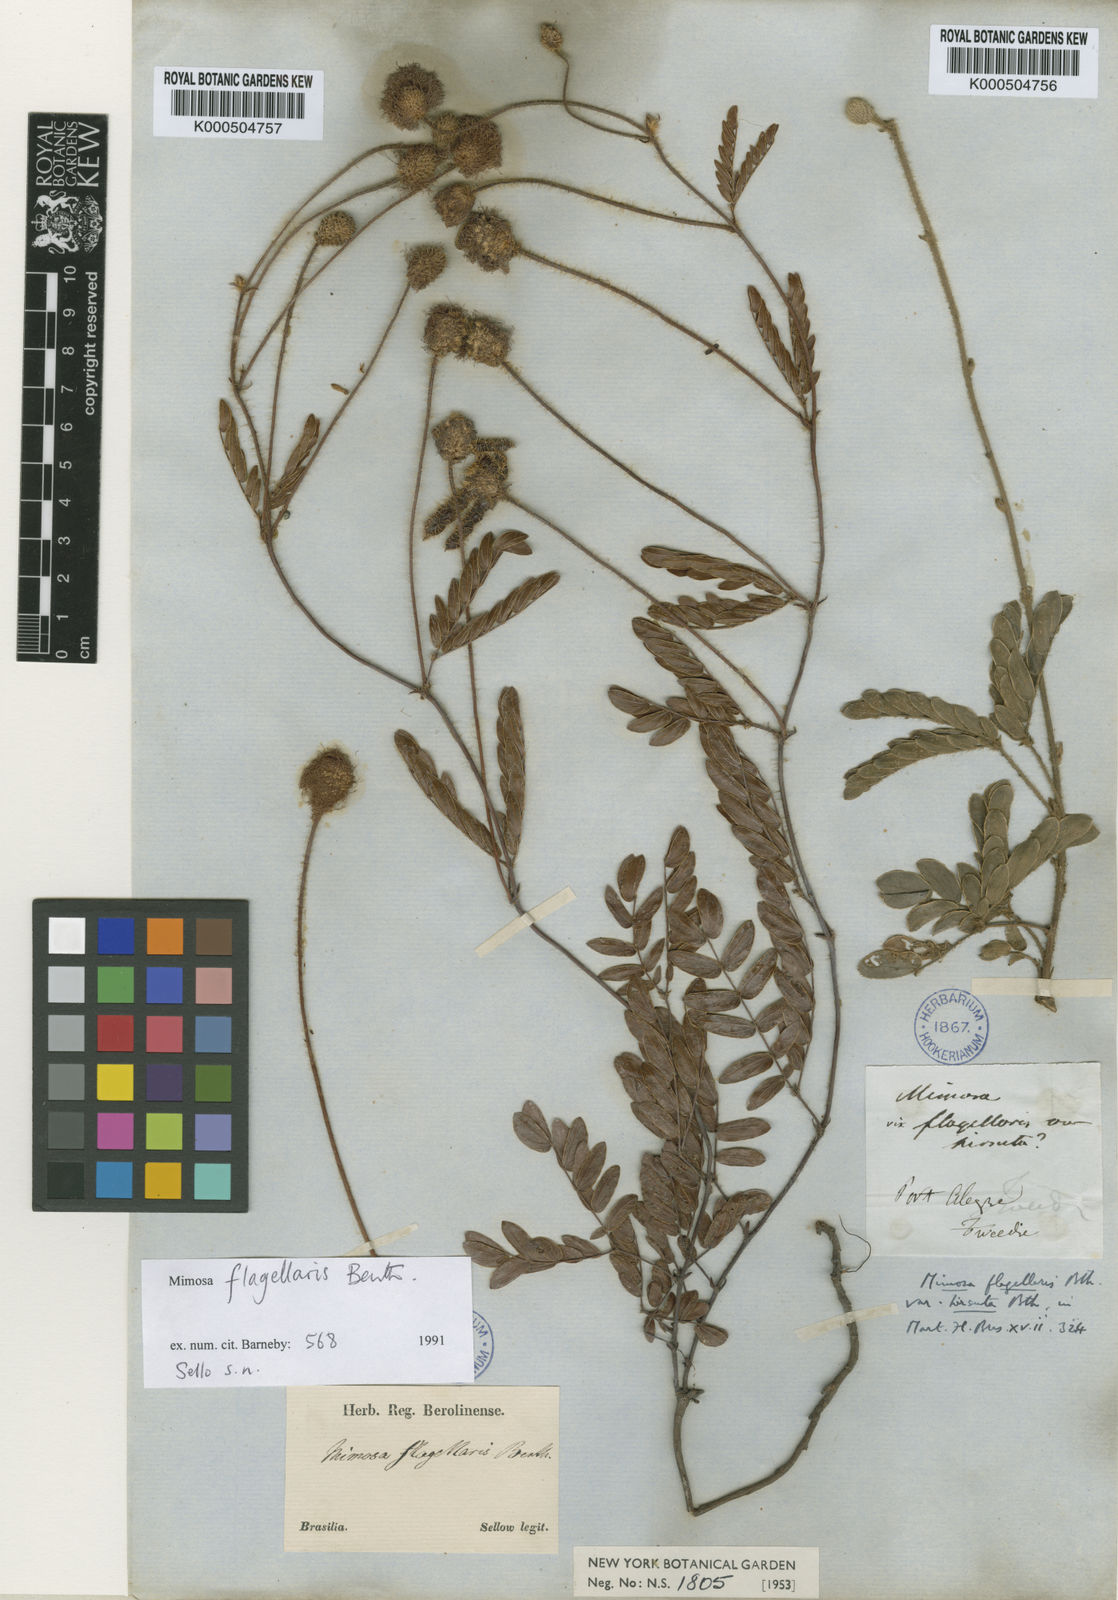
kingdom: Plantae
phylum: Tracheophyta
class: Magnoliopsida
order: Fabales
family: Fabaceae
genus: Mimosa
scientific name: Mimosa flagellaris
